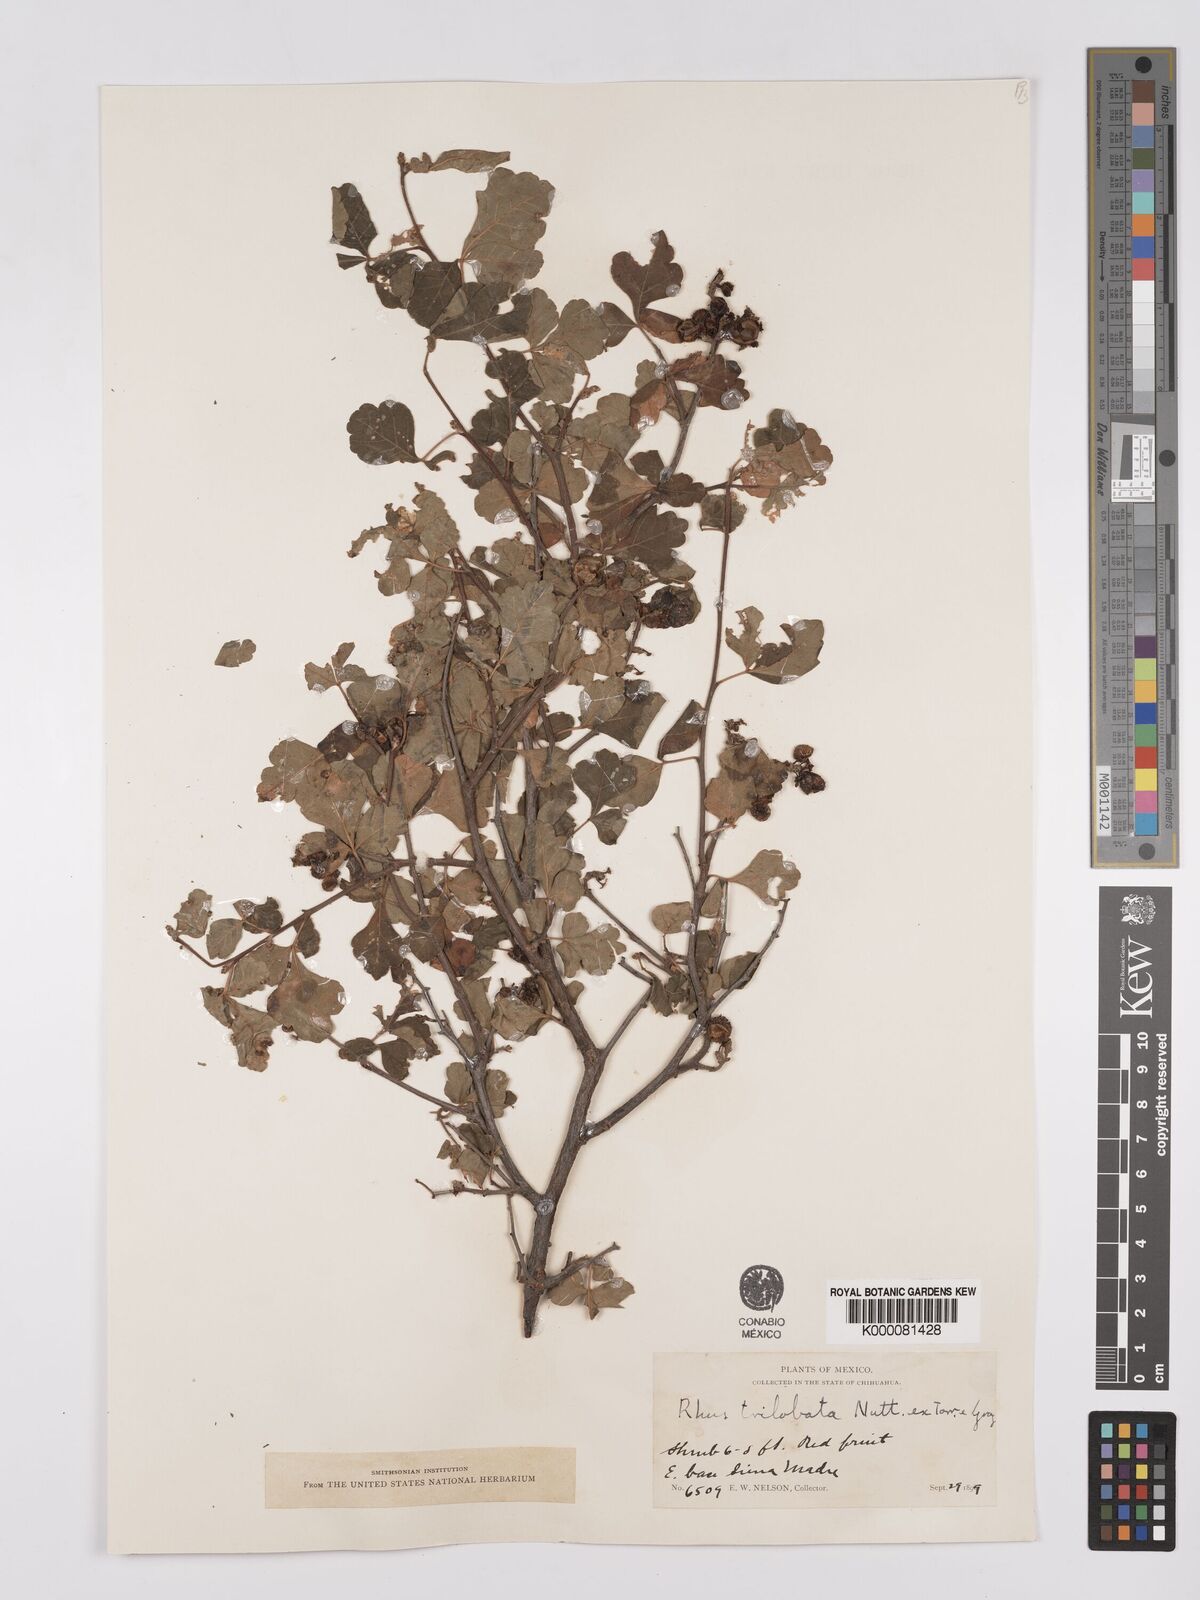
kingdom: Plantae
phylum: Tracheophyta
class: Magnoliopsida
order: Sapindales
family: Anacardiaceae
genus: Rhus
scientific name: Rhus
